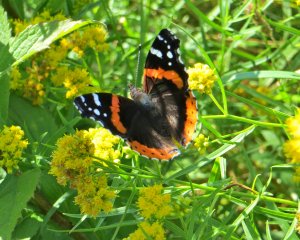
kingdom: Animalia
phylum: Arthropoda
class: Insecta
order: Lepidoptera
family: Nymphalidae
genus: Vanessa
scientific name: Vanessa atalanta
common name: Red Admiral
